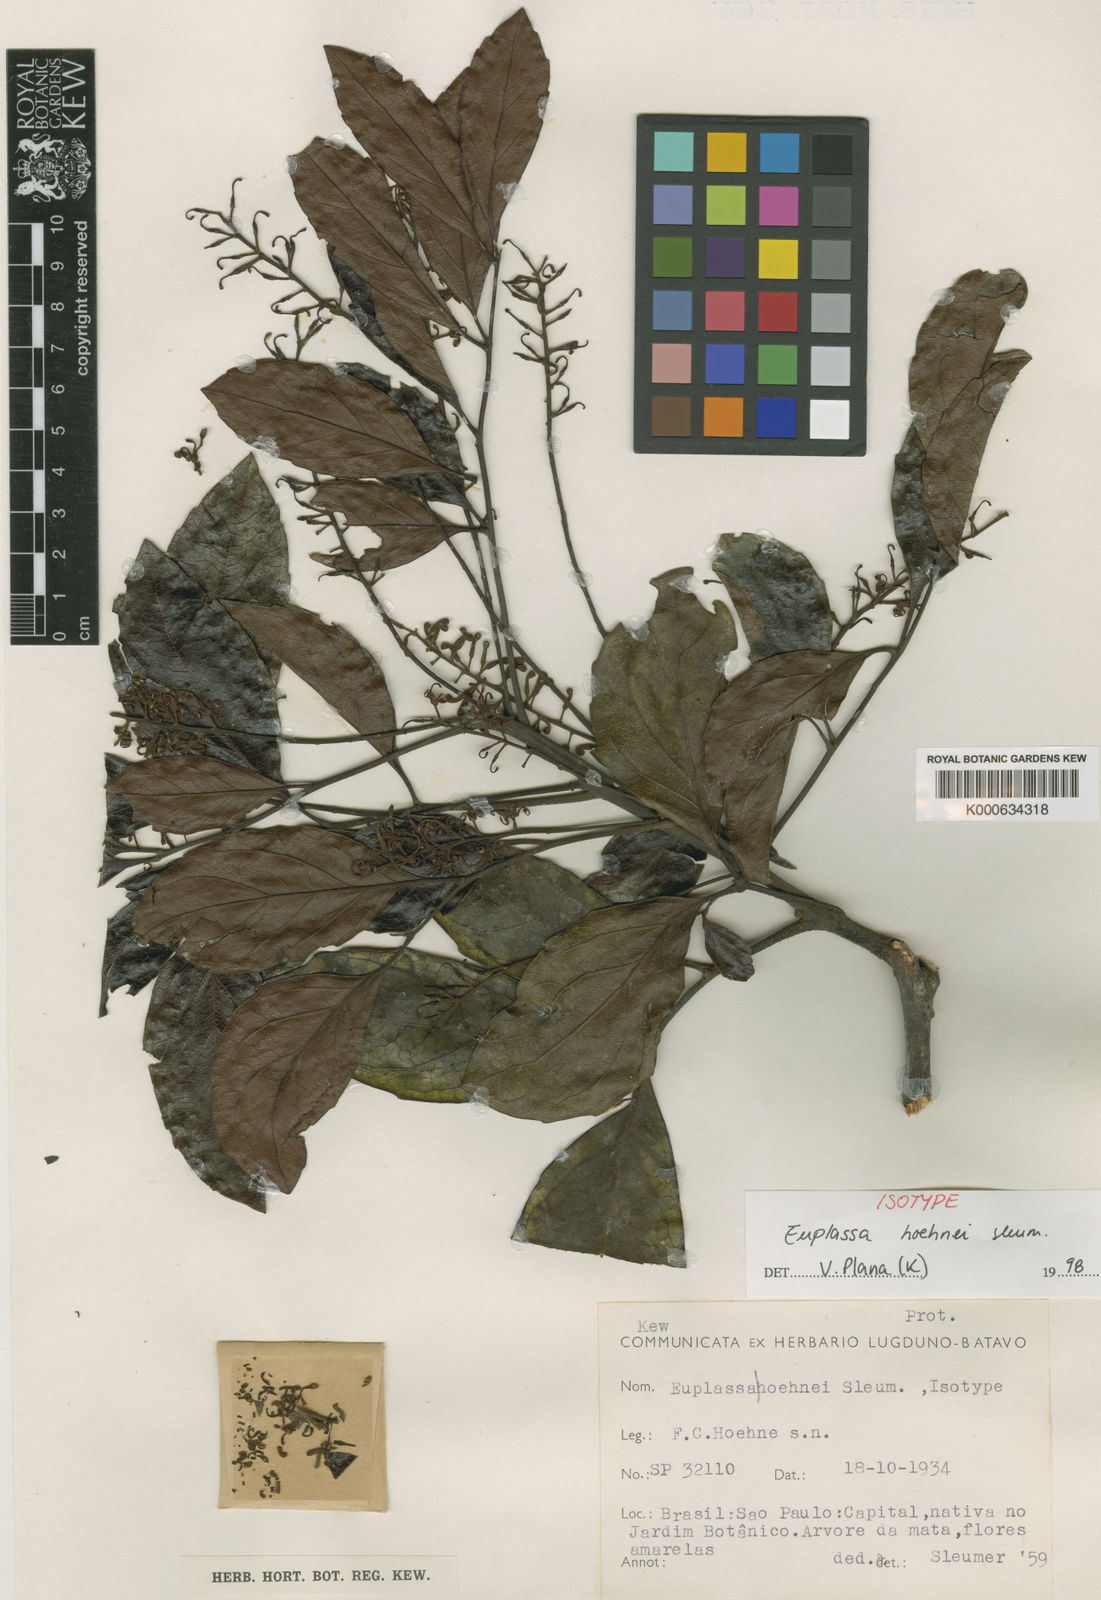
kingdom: Plantae
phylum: Tracheophyta
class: Magnoliopsida
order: Proteales
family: Proteaceae
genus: Euplassa
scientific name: Euplassa hoehnei
